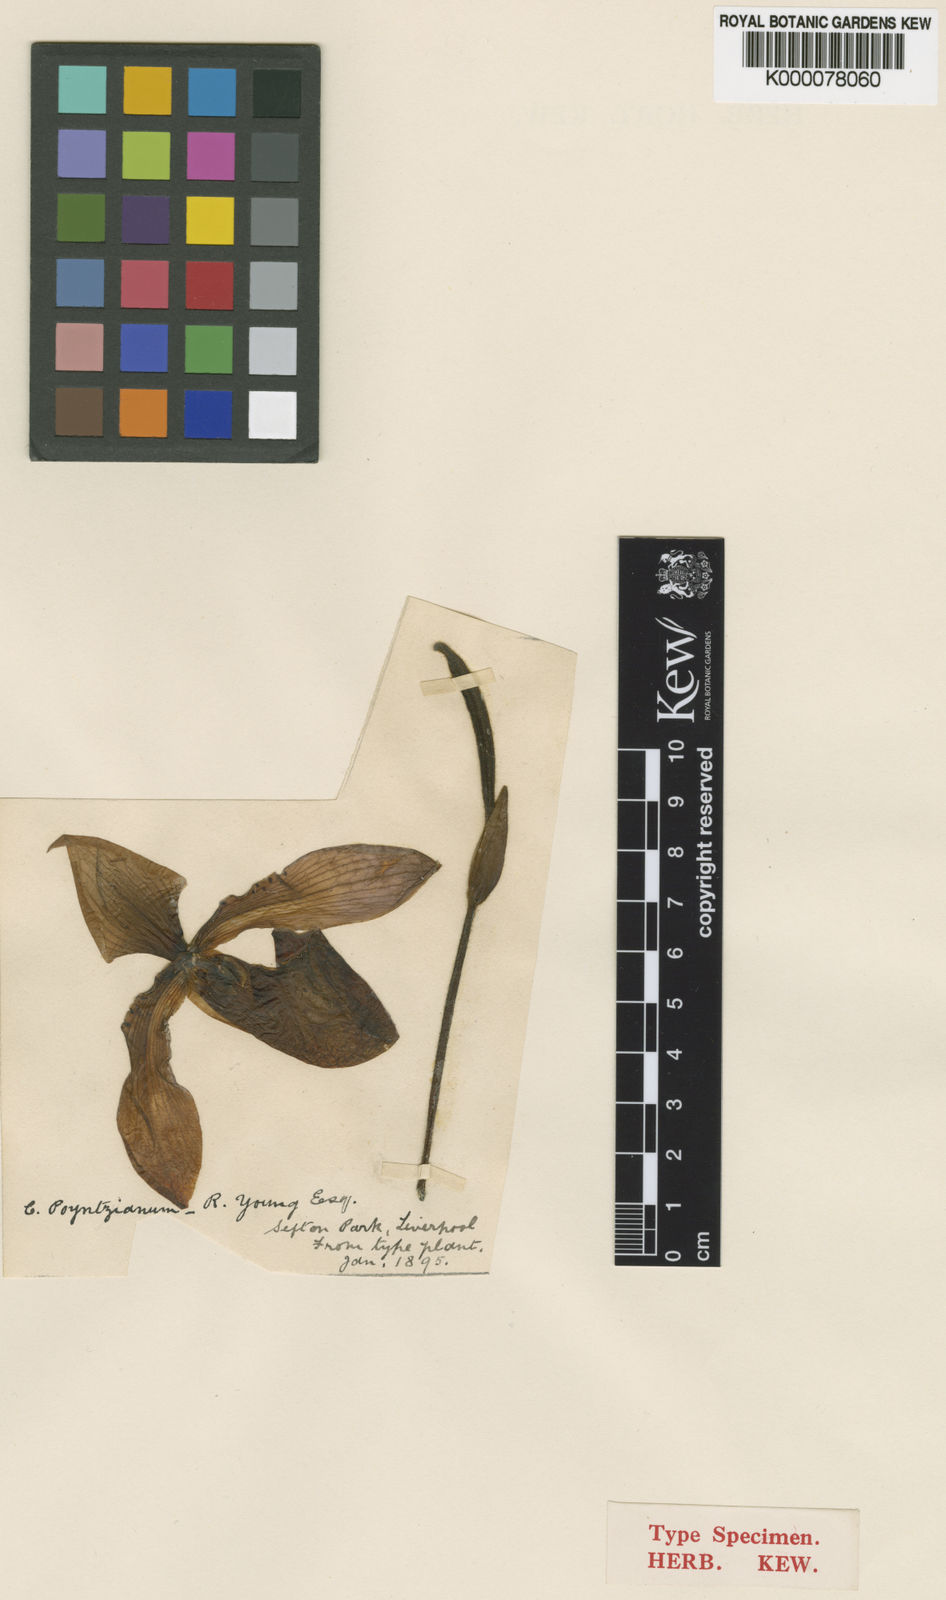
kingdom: Plantae
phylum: Tracheophyta
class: Liliopsida
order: Asparagales
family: Orchidaceae
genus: Paphiopedilum
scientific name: Paphiopedilum appletonianum
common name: Appleton's paphiopedilum
